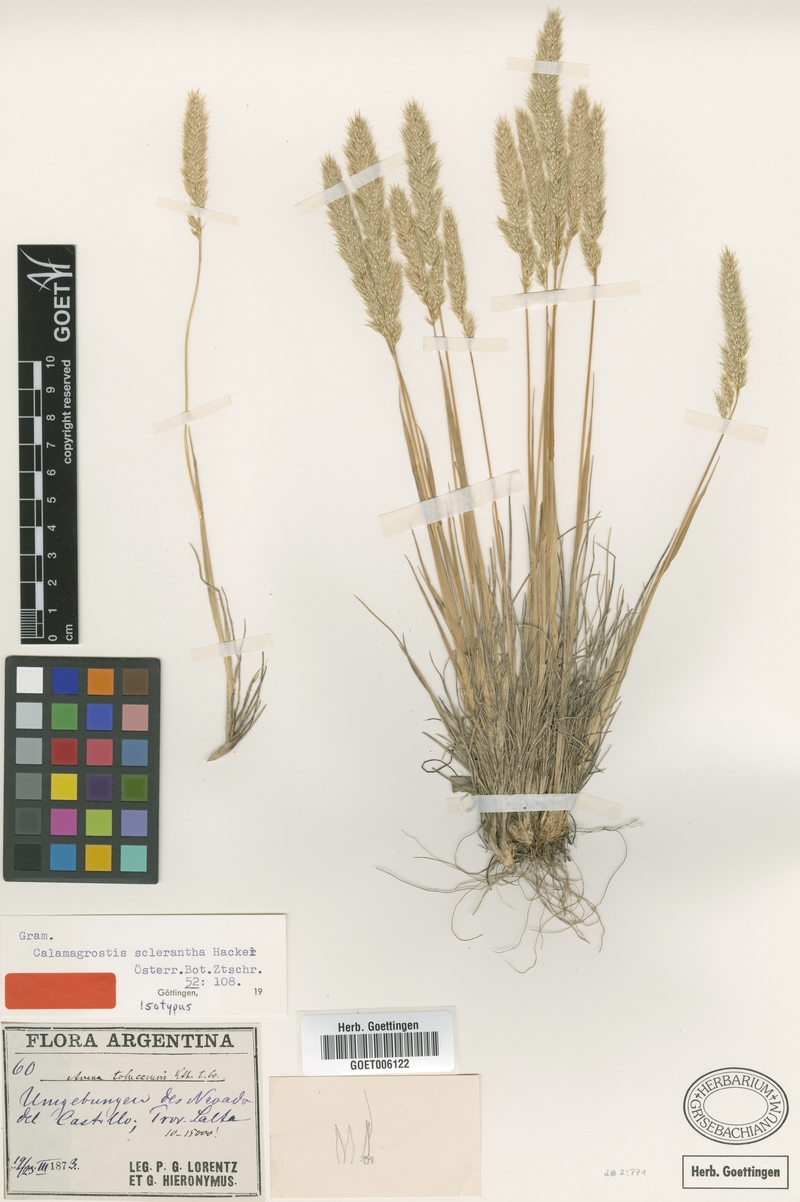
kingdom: Plantae
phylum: Tracheophyta
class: Liliopsida
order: Poales
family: Poaceae
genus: Cinnagrostis
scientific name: Cinnagrostis sclerantha
